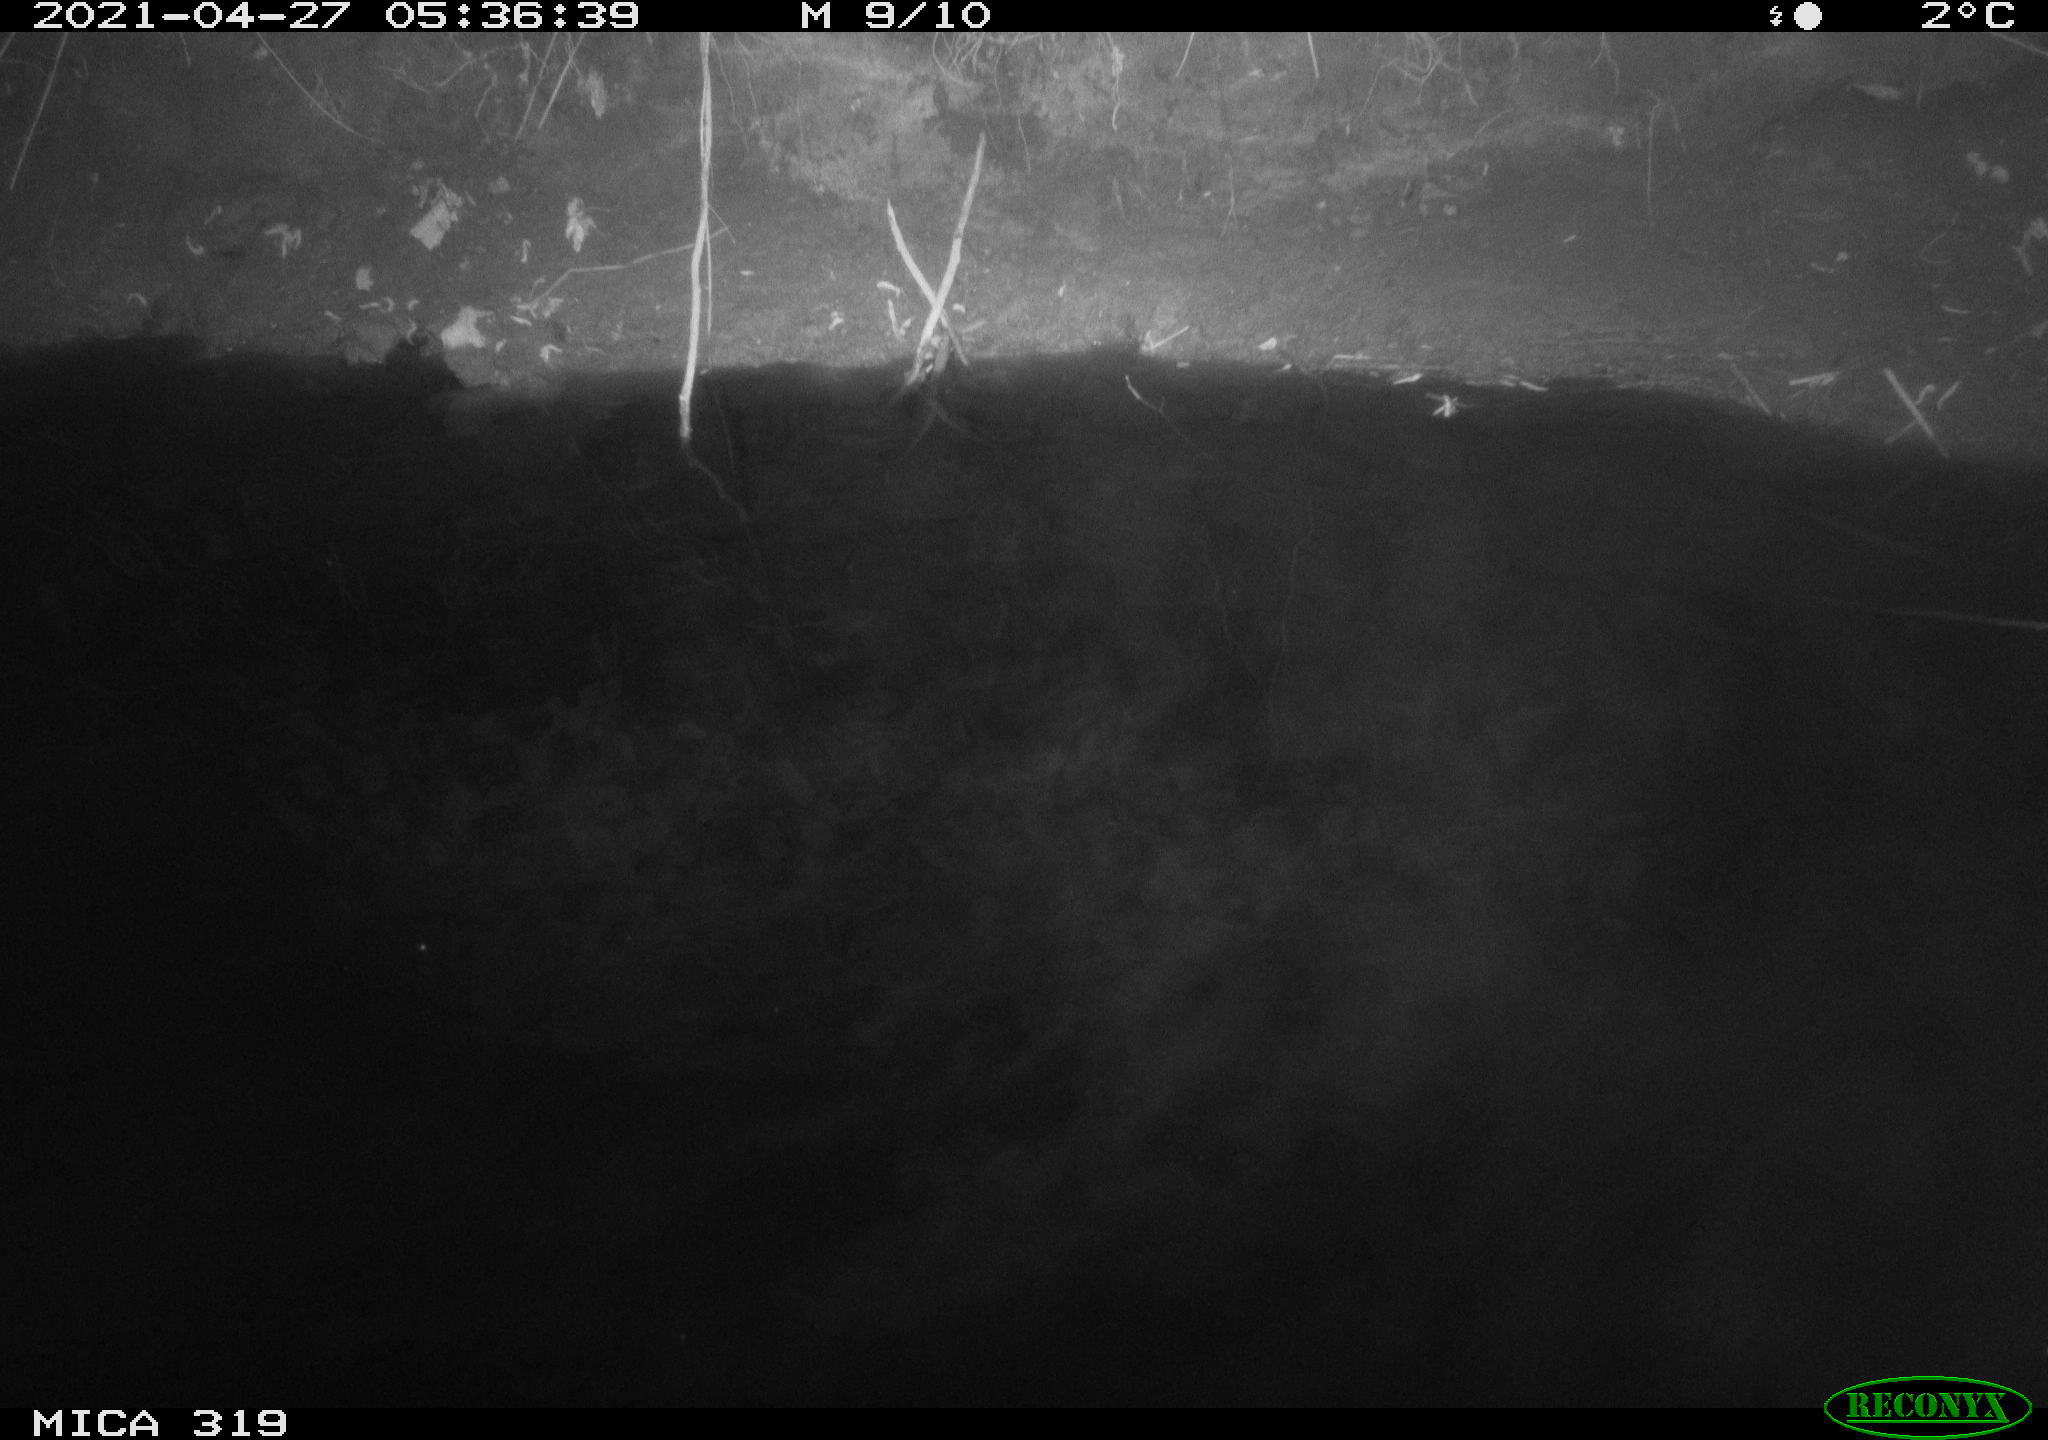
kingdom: Animalia
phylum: Chordata
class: Aves
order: Anseriformes
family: Anatidae
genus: Anas
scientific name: Anas platyrhynchos
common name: Mallard
